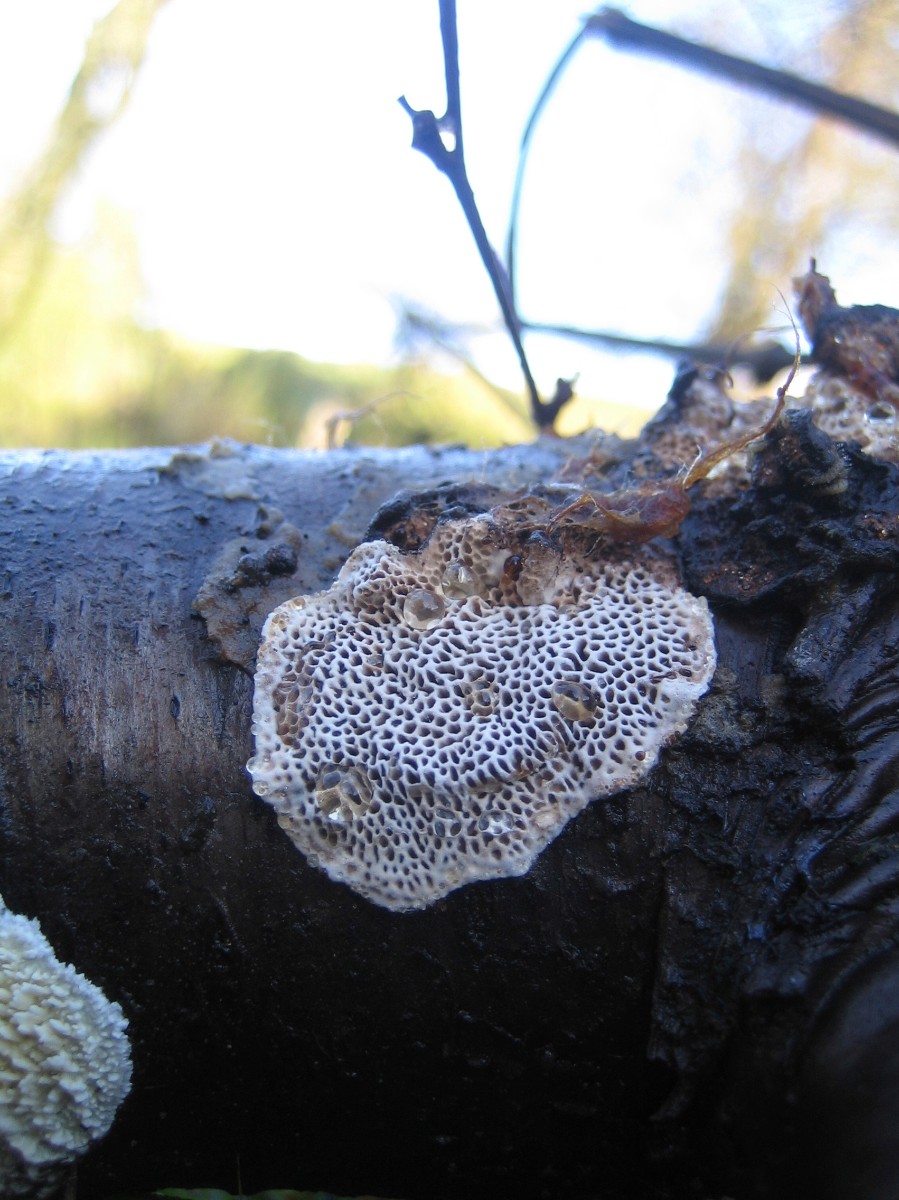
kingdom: Fungi
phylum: Basidiomycota
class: Agaricomycetes
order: Polyporales
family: Polyporaceae
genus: Podofomes
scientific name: Podofomes mollis
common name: blød begporesvamp
